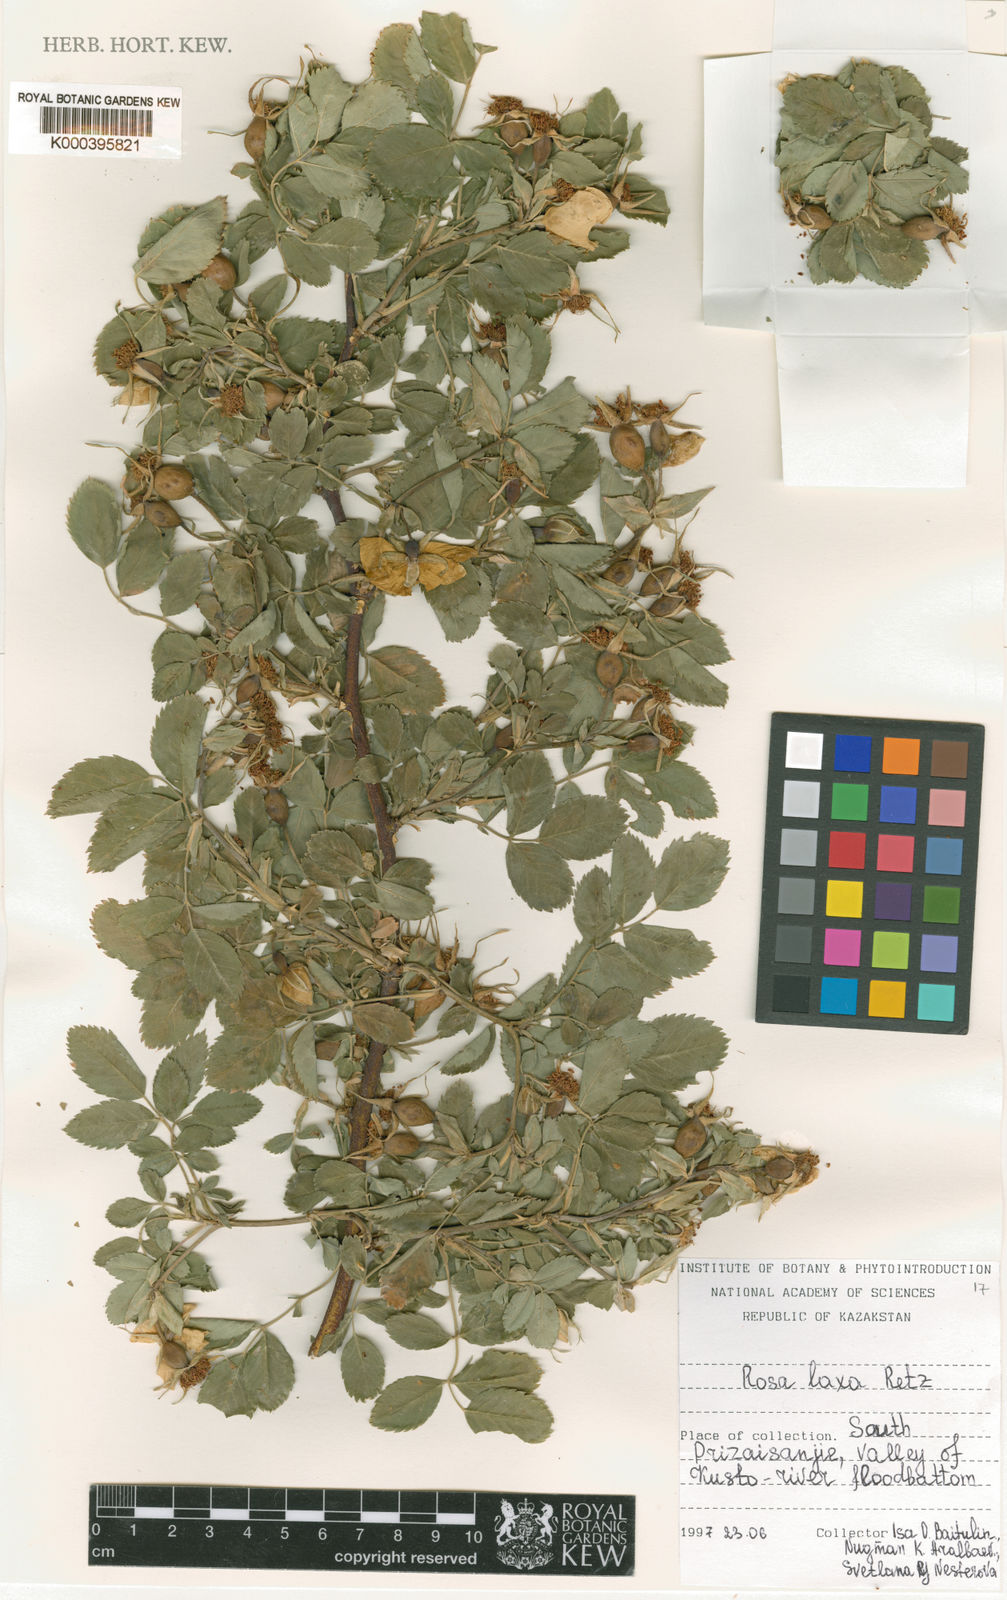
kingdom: Plantae
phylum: Tracheophyta
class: Magnoliopsida
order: Rosales
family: Rosaceae
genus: Rosa
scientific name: Rosa laxa
